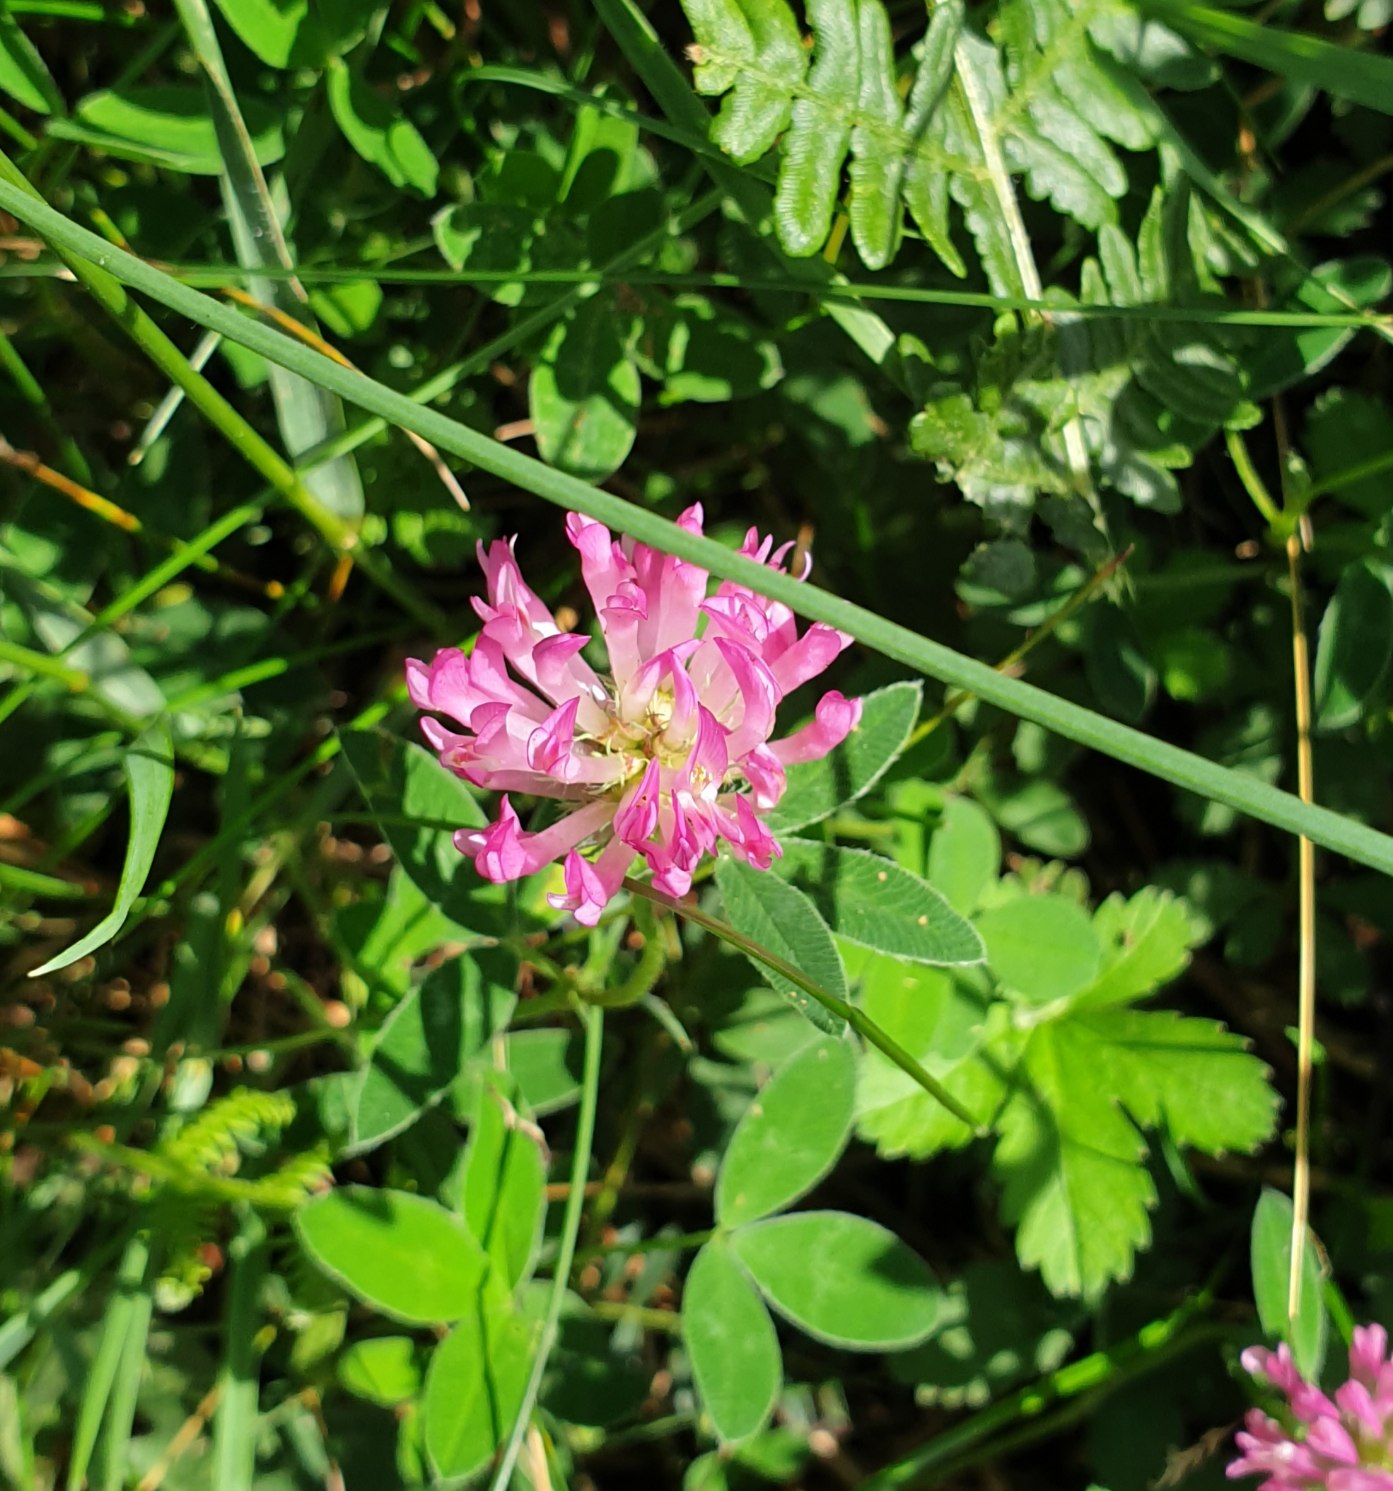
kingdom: Plantae
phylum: Tracheophyta
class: Magnoliopsida
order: Fabales
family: Fabaceae
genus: Trifolium
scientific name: Trifolium medium
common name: Bugtet kløver
